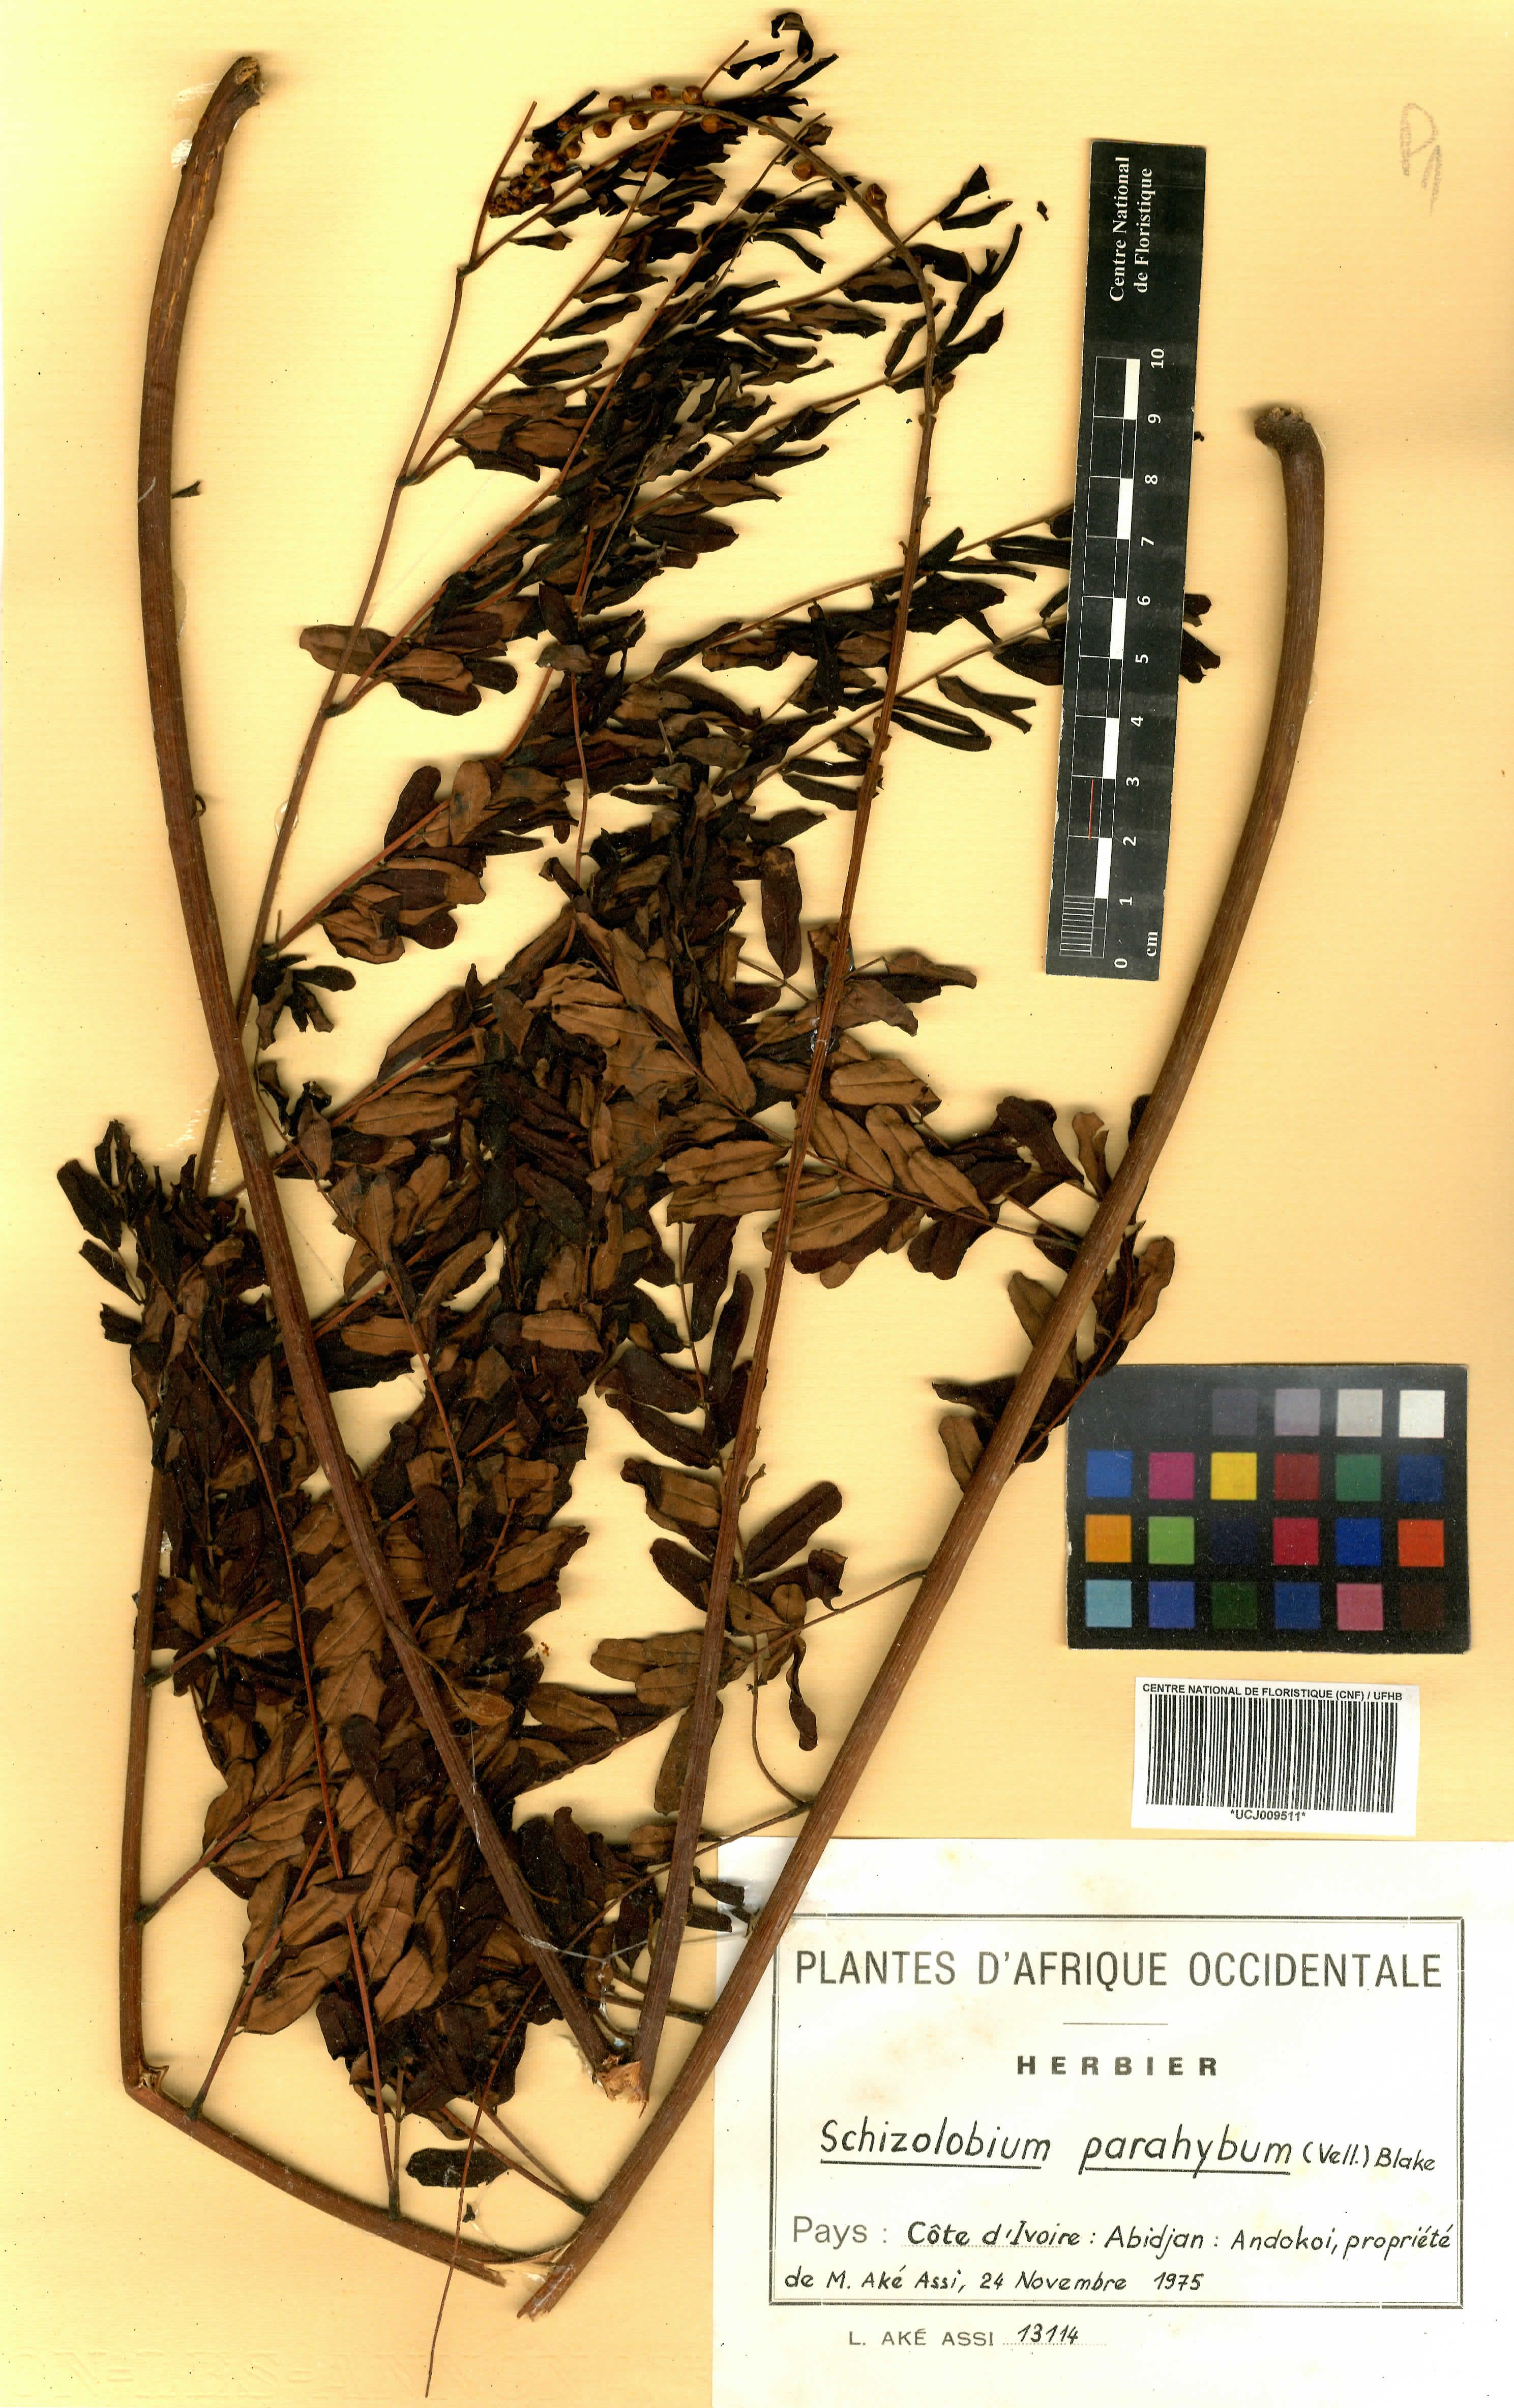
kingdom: Plantae
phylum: Tracheophyta
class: Magnoliopsida
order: Fabales
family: Fabaceae
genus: Schizolobium
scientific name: Schizolobium parahyba
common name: Brazilian firetree
